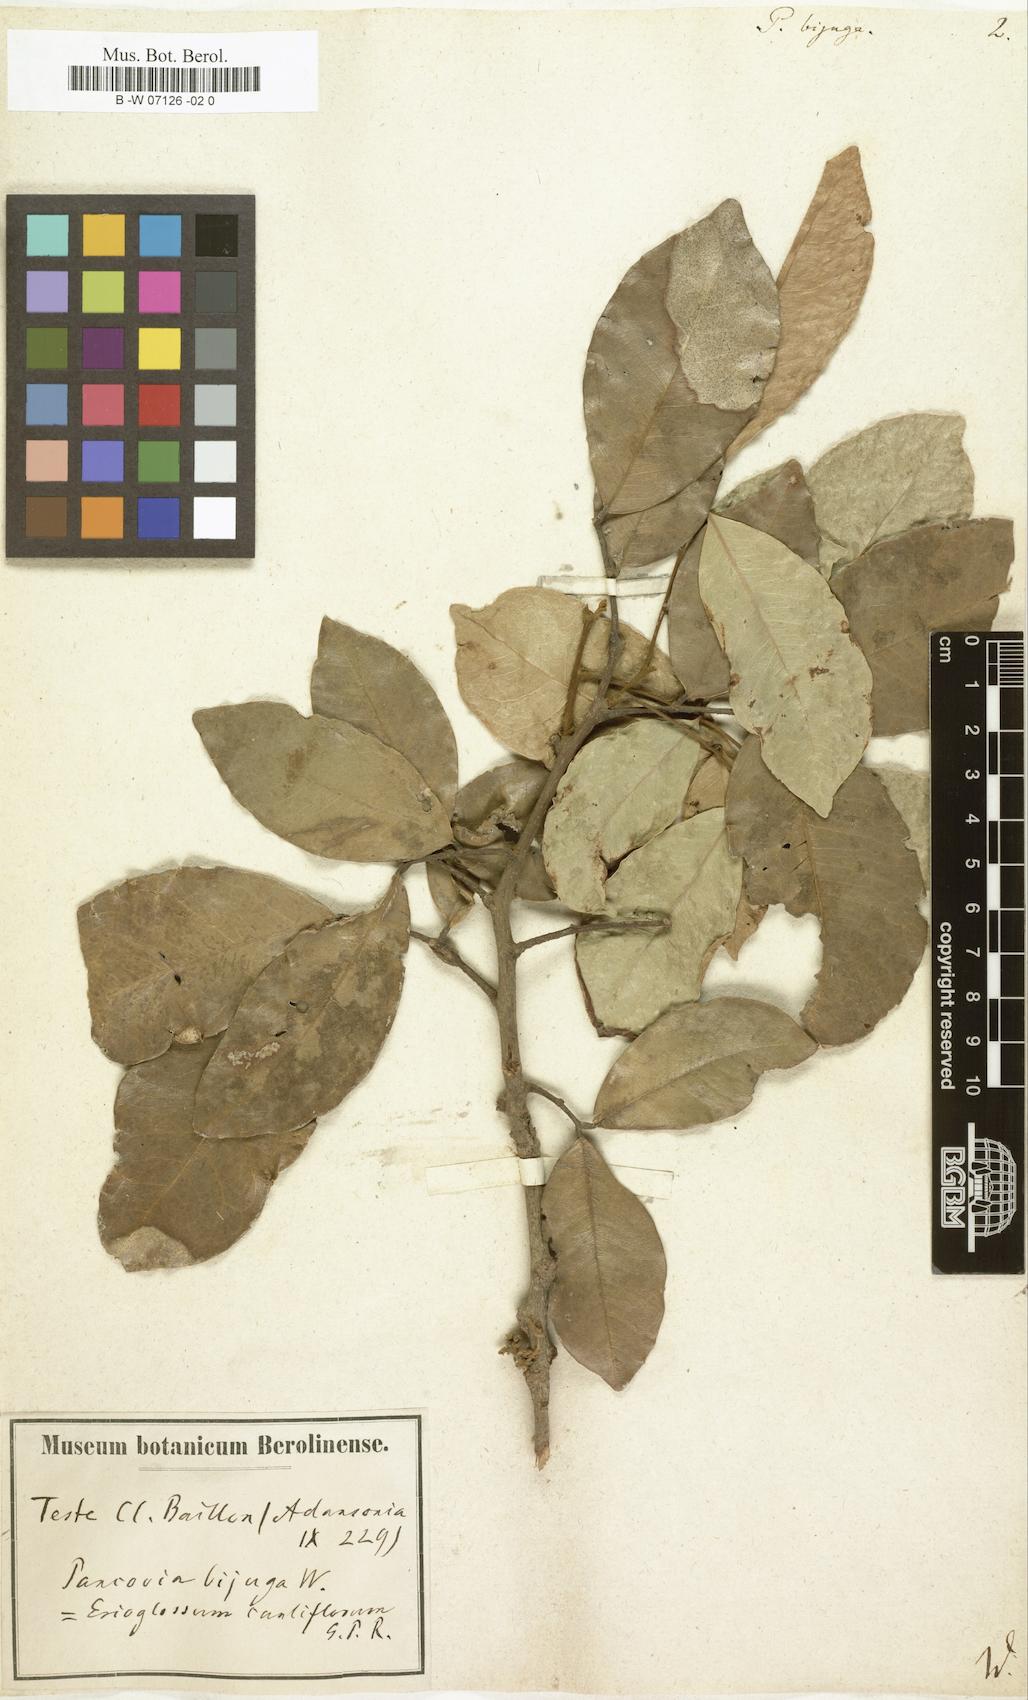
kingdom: Plantae
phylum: Tracheophyta
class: Magnoliopsida
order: Sapindales
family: Sapindaceae
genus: Pancovia
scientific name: Pancovia bijuga
